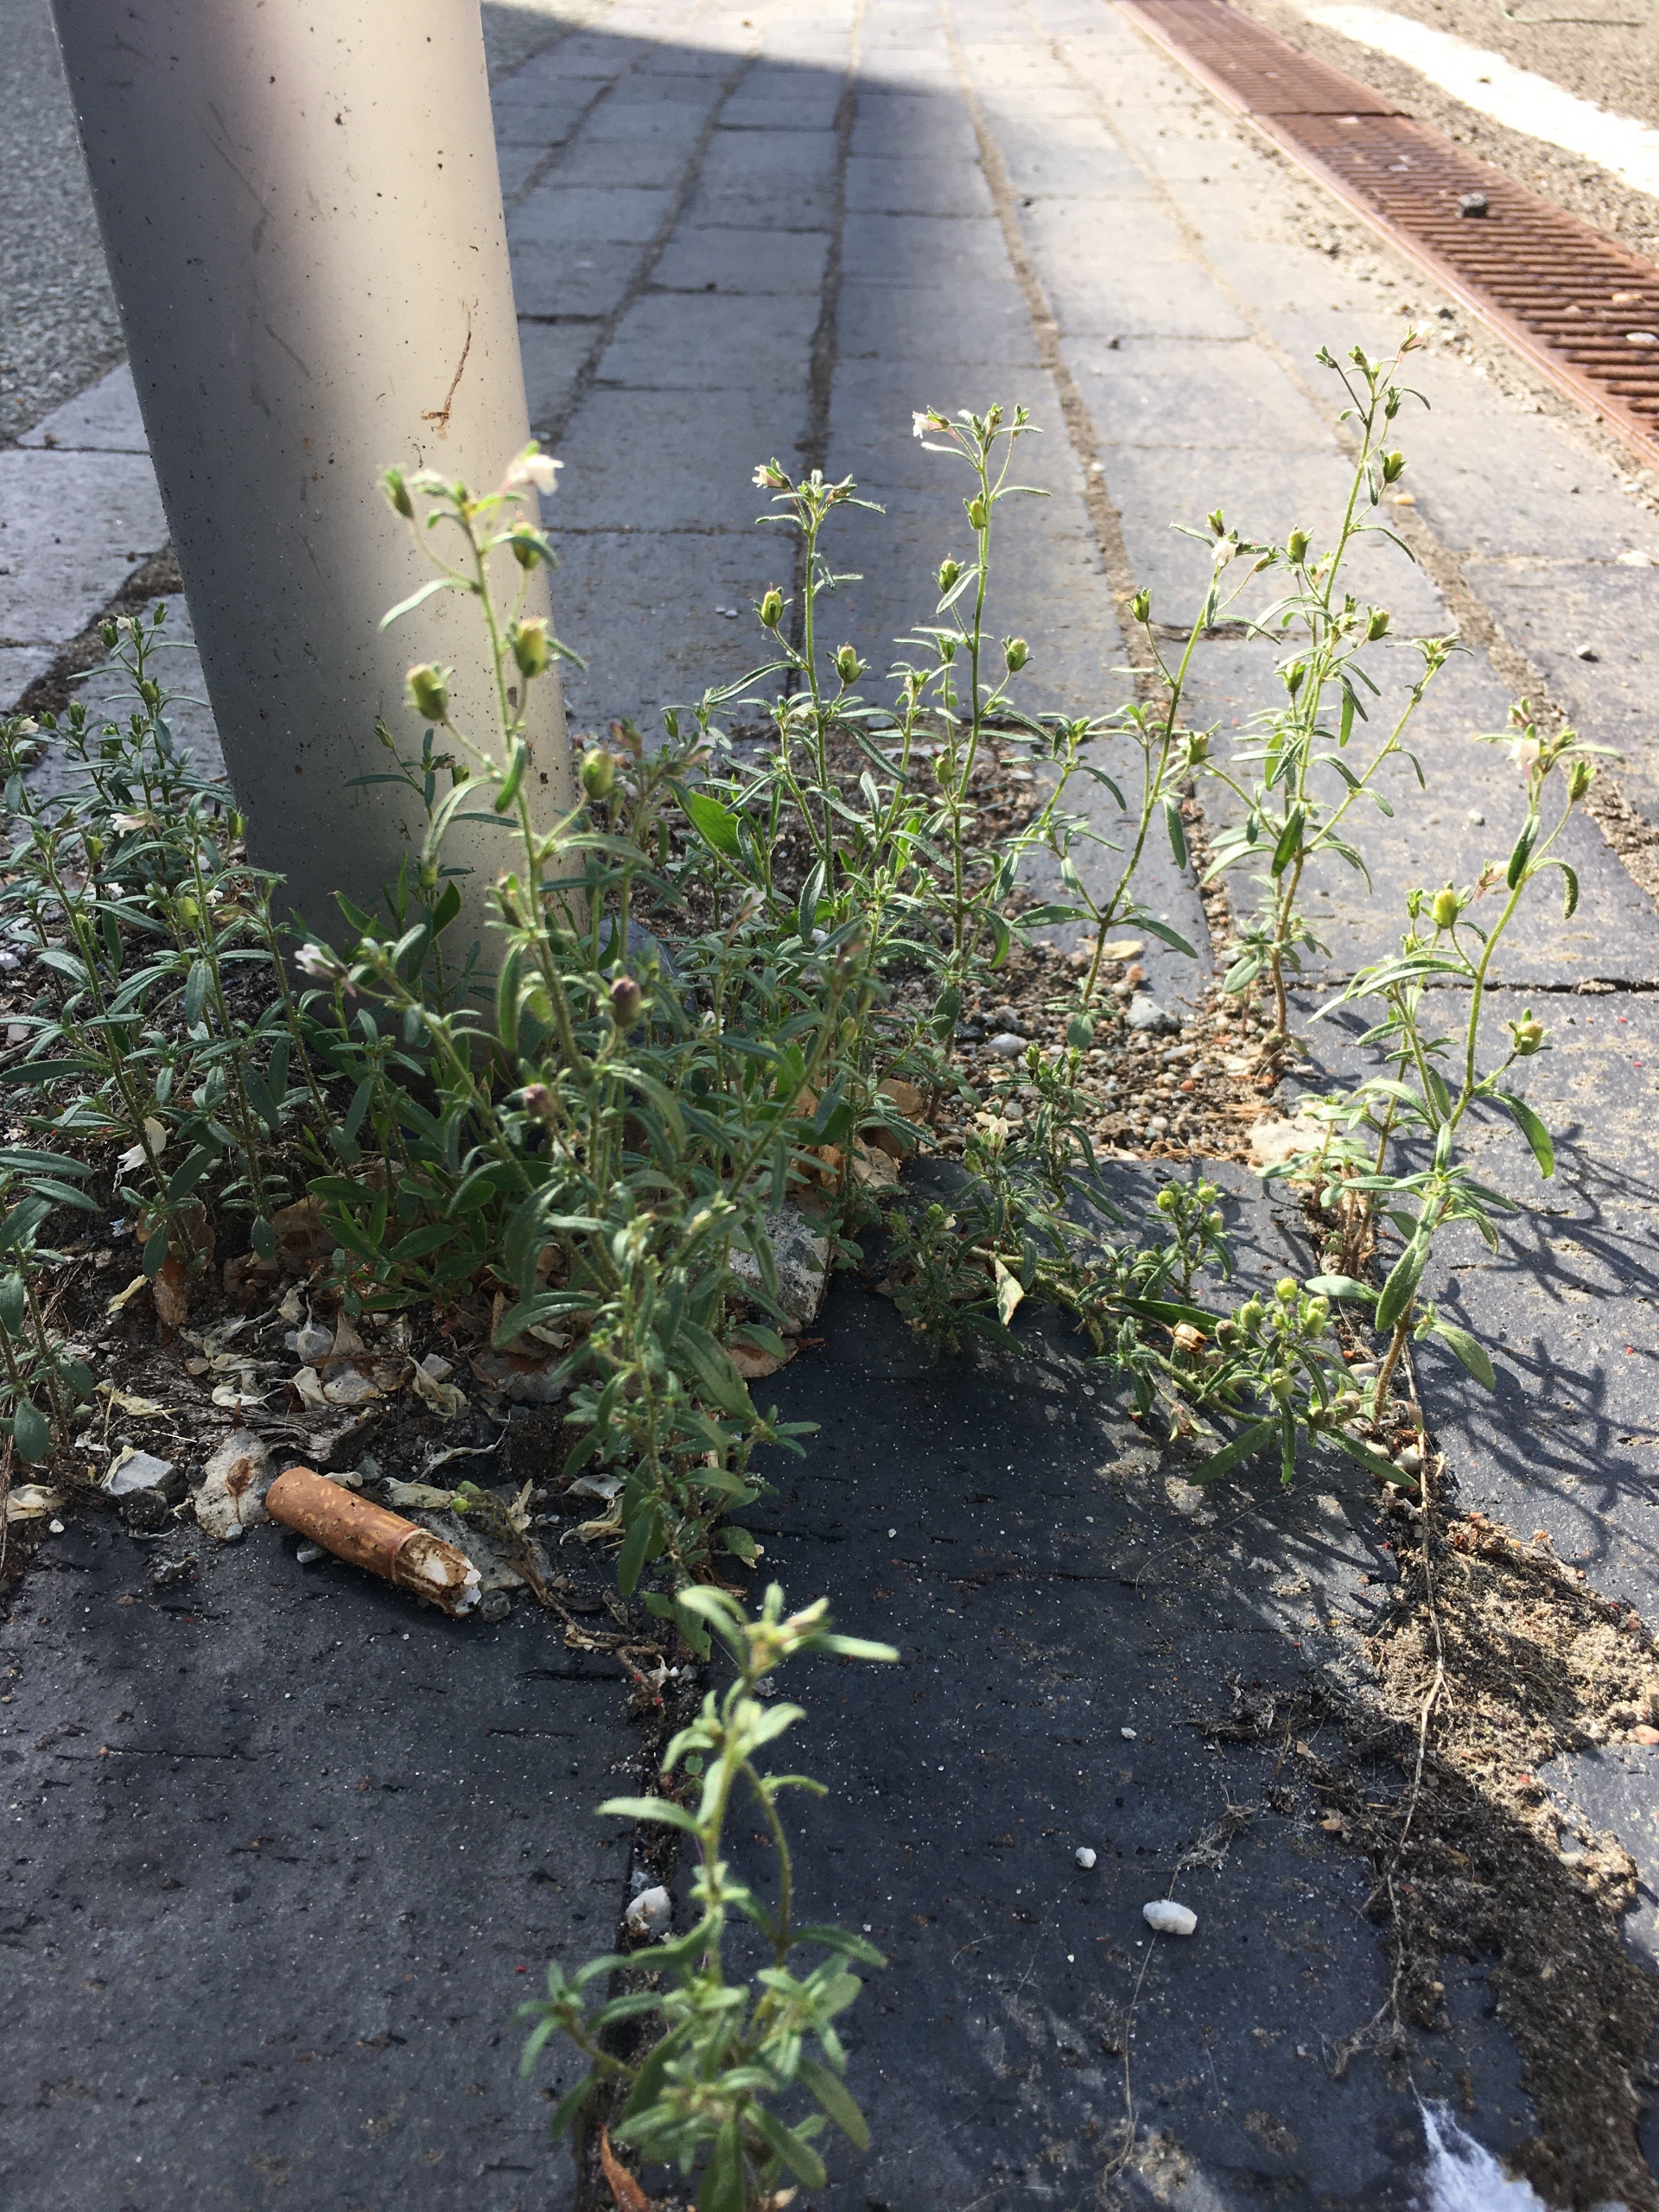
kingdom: Plantae
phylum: Tracheophyta
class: Magnoliopsida
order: Lamiales
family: Plantaginaceae
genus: Chaenorhinum
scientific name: Chaenorhinum minus
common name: Liden torskemund
